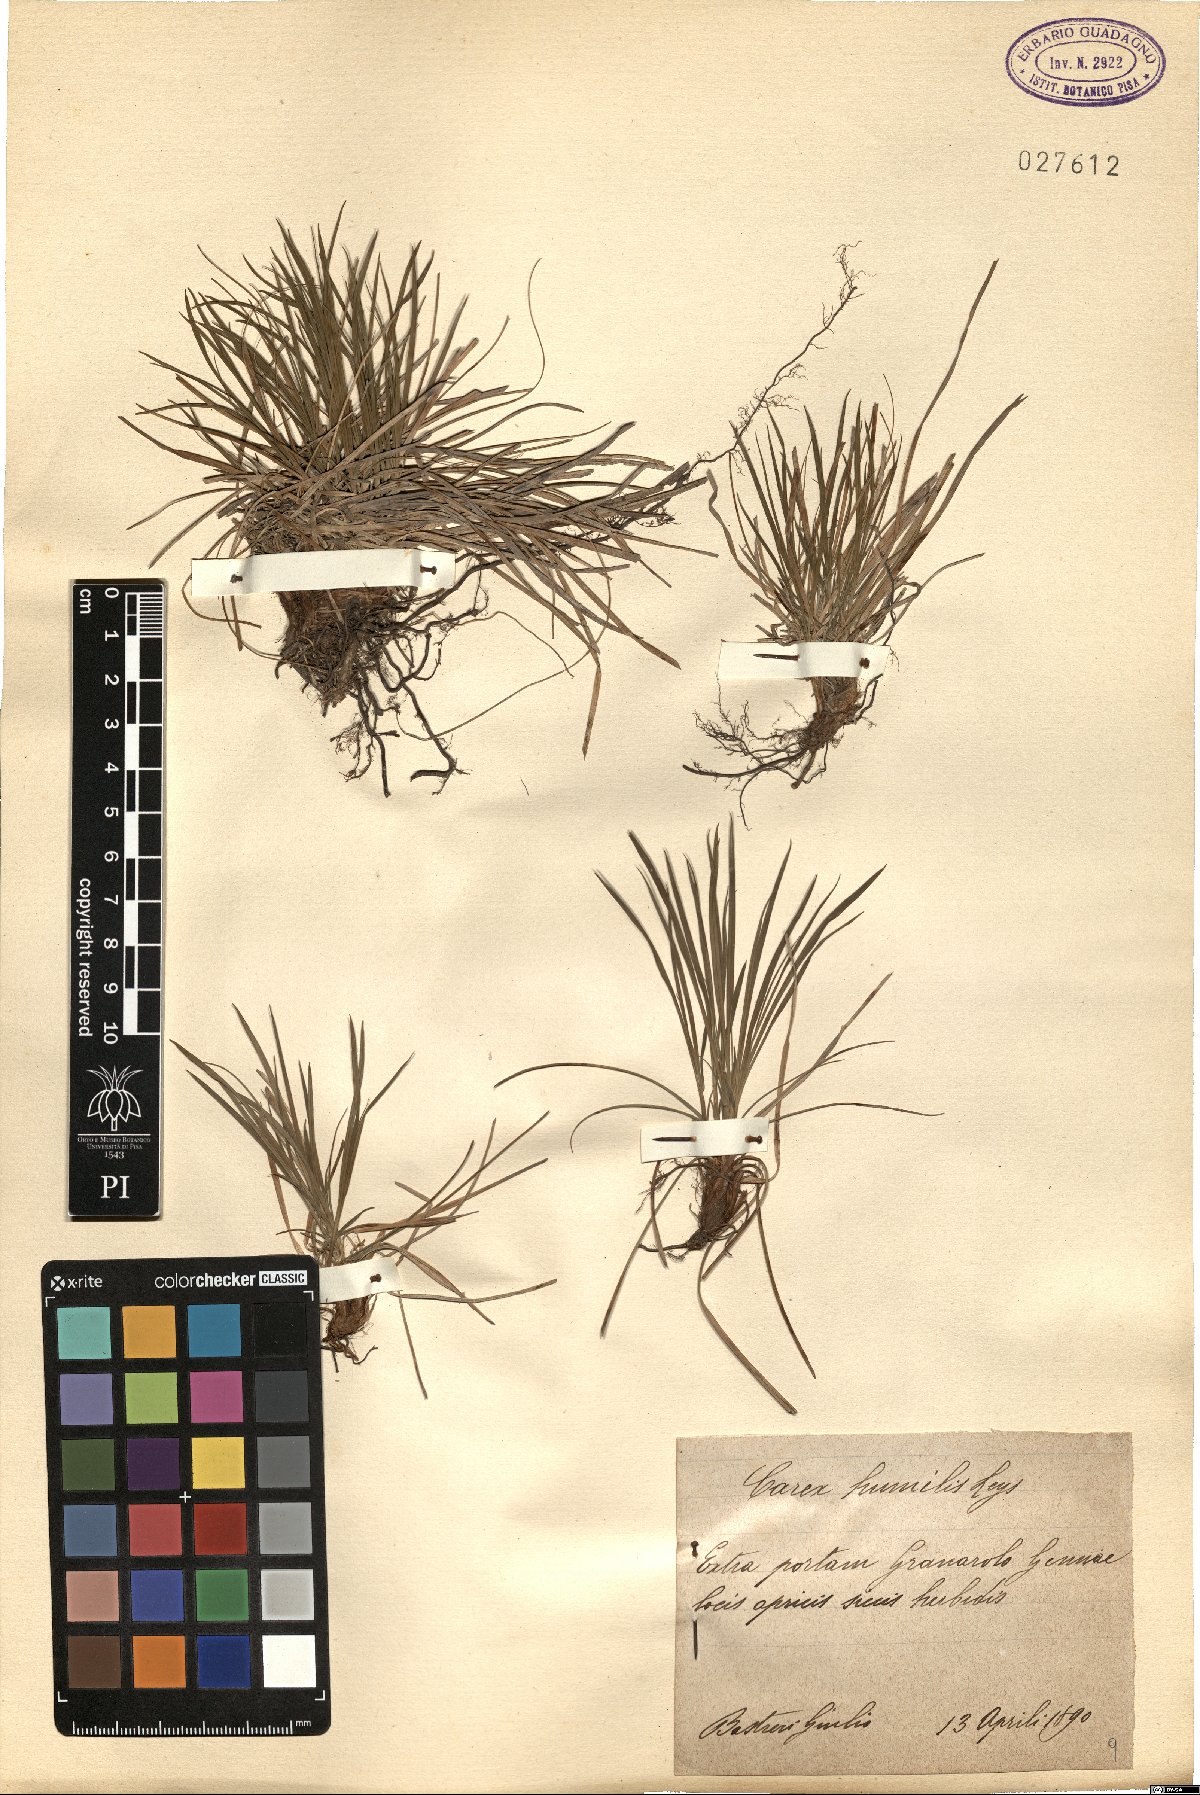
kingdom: Plantae
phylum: Tracheophyta
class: Liliopsida
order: Poales
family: Cyperaceae
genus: Carex
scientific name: Carex humilis
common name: Dwarf sedge
